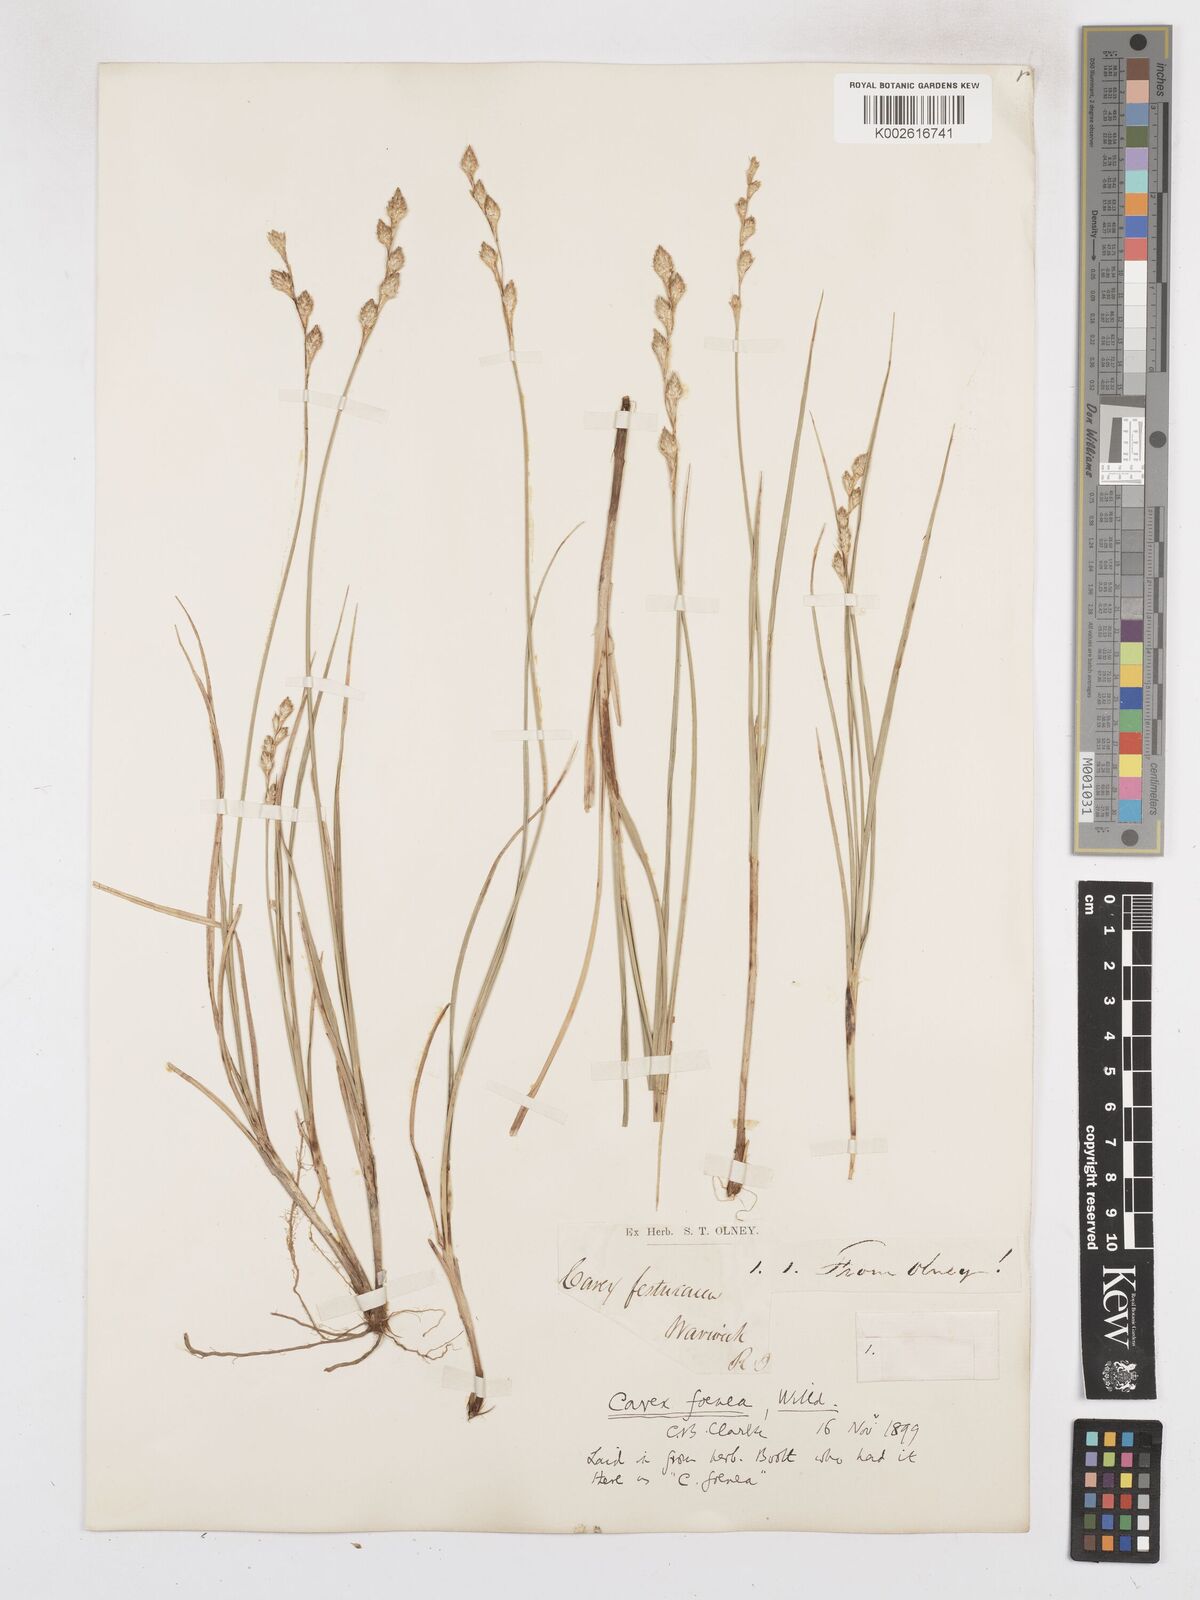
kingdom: Plantae
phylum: Tracheophyta
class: Liliopsida
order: Poales
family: Cyperaceae
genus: Carex
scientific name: Carex argyrantha
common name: Silvery-flowered sedge
